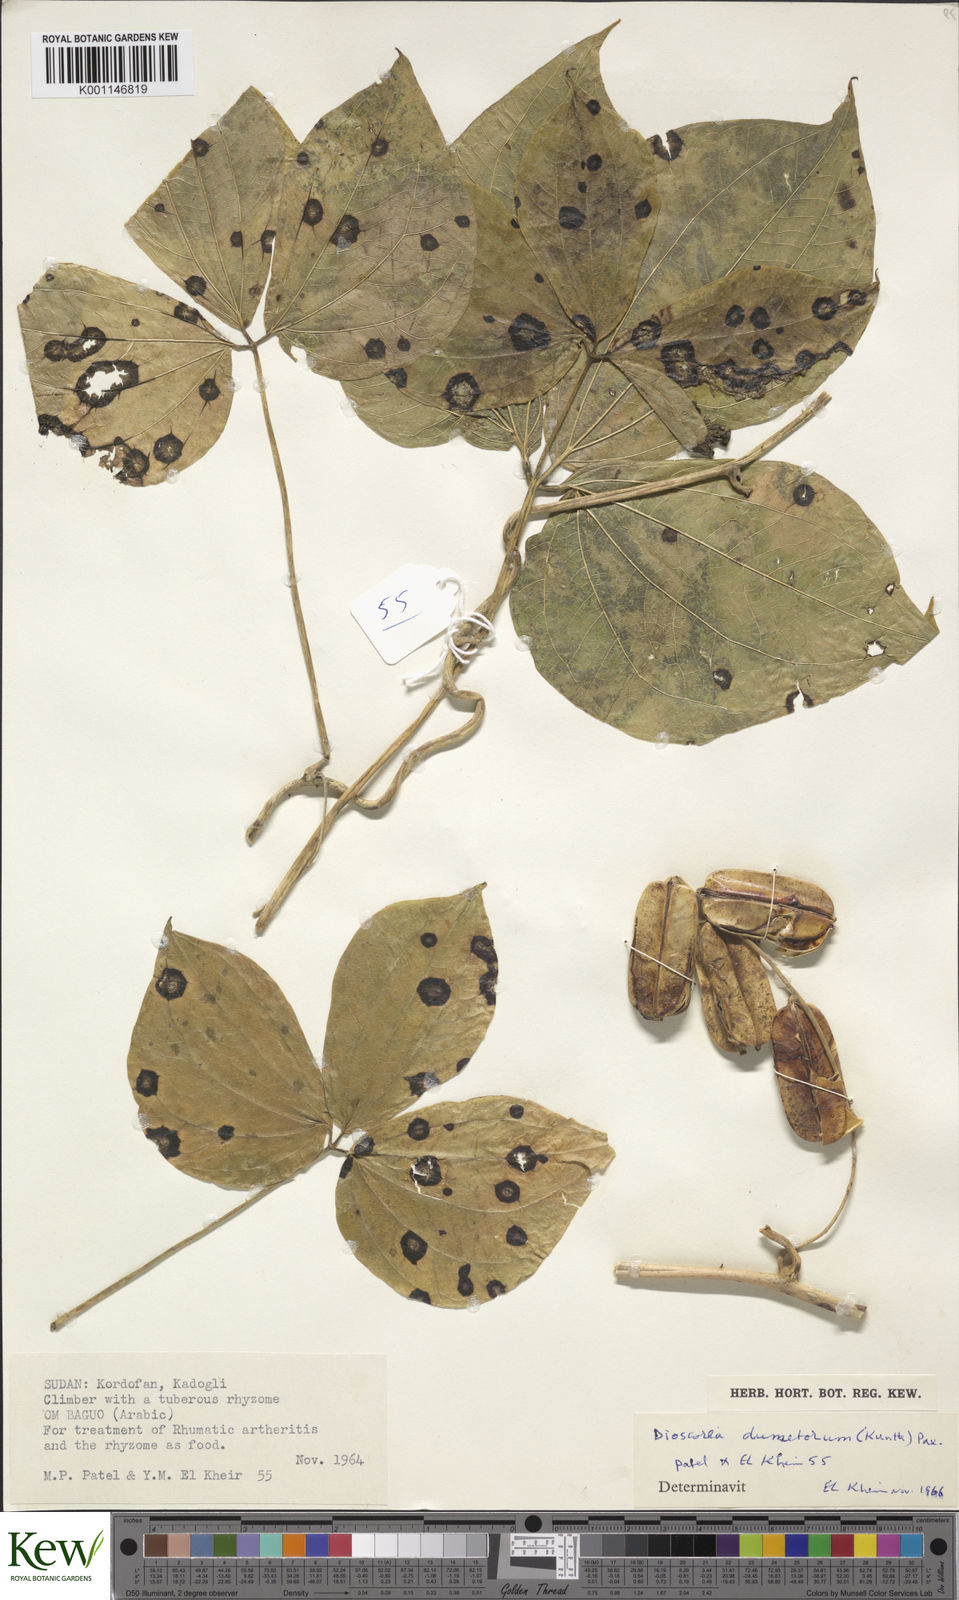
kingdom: Plantae
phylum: Tracheophyta
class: Liliopsida
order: Dioscoreales
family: Dioscoreaceae
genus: Dioscorea
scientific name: Dioscorea dumetorum
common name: African bitter yam
